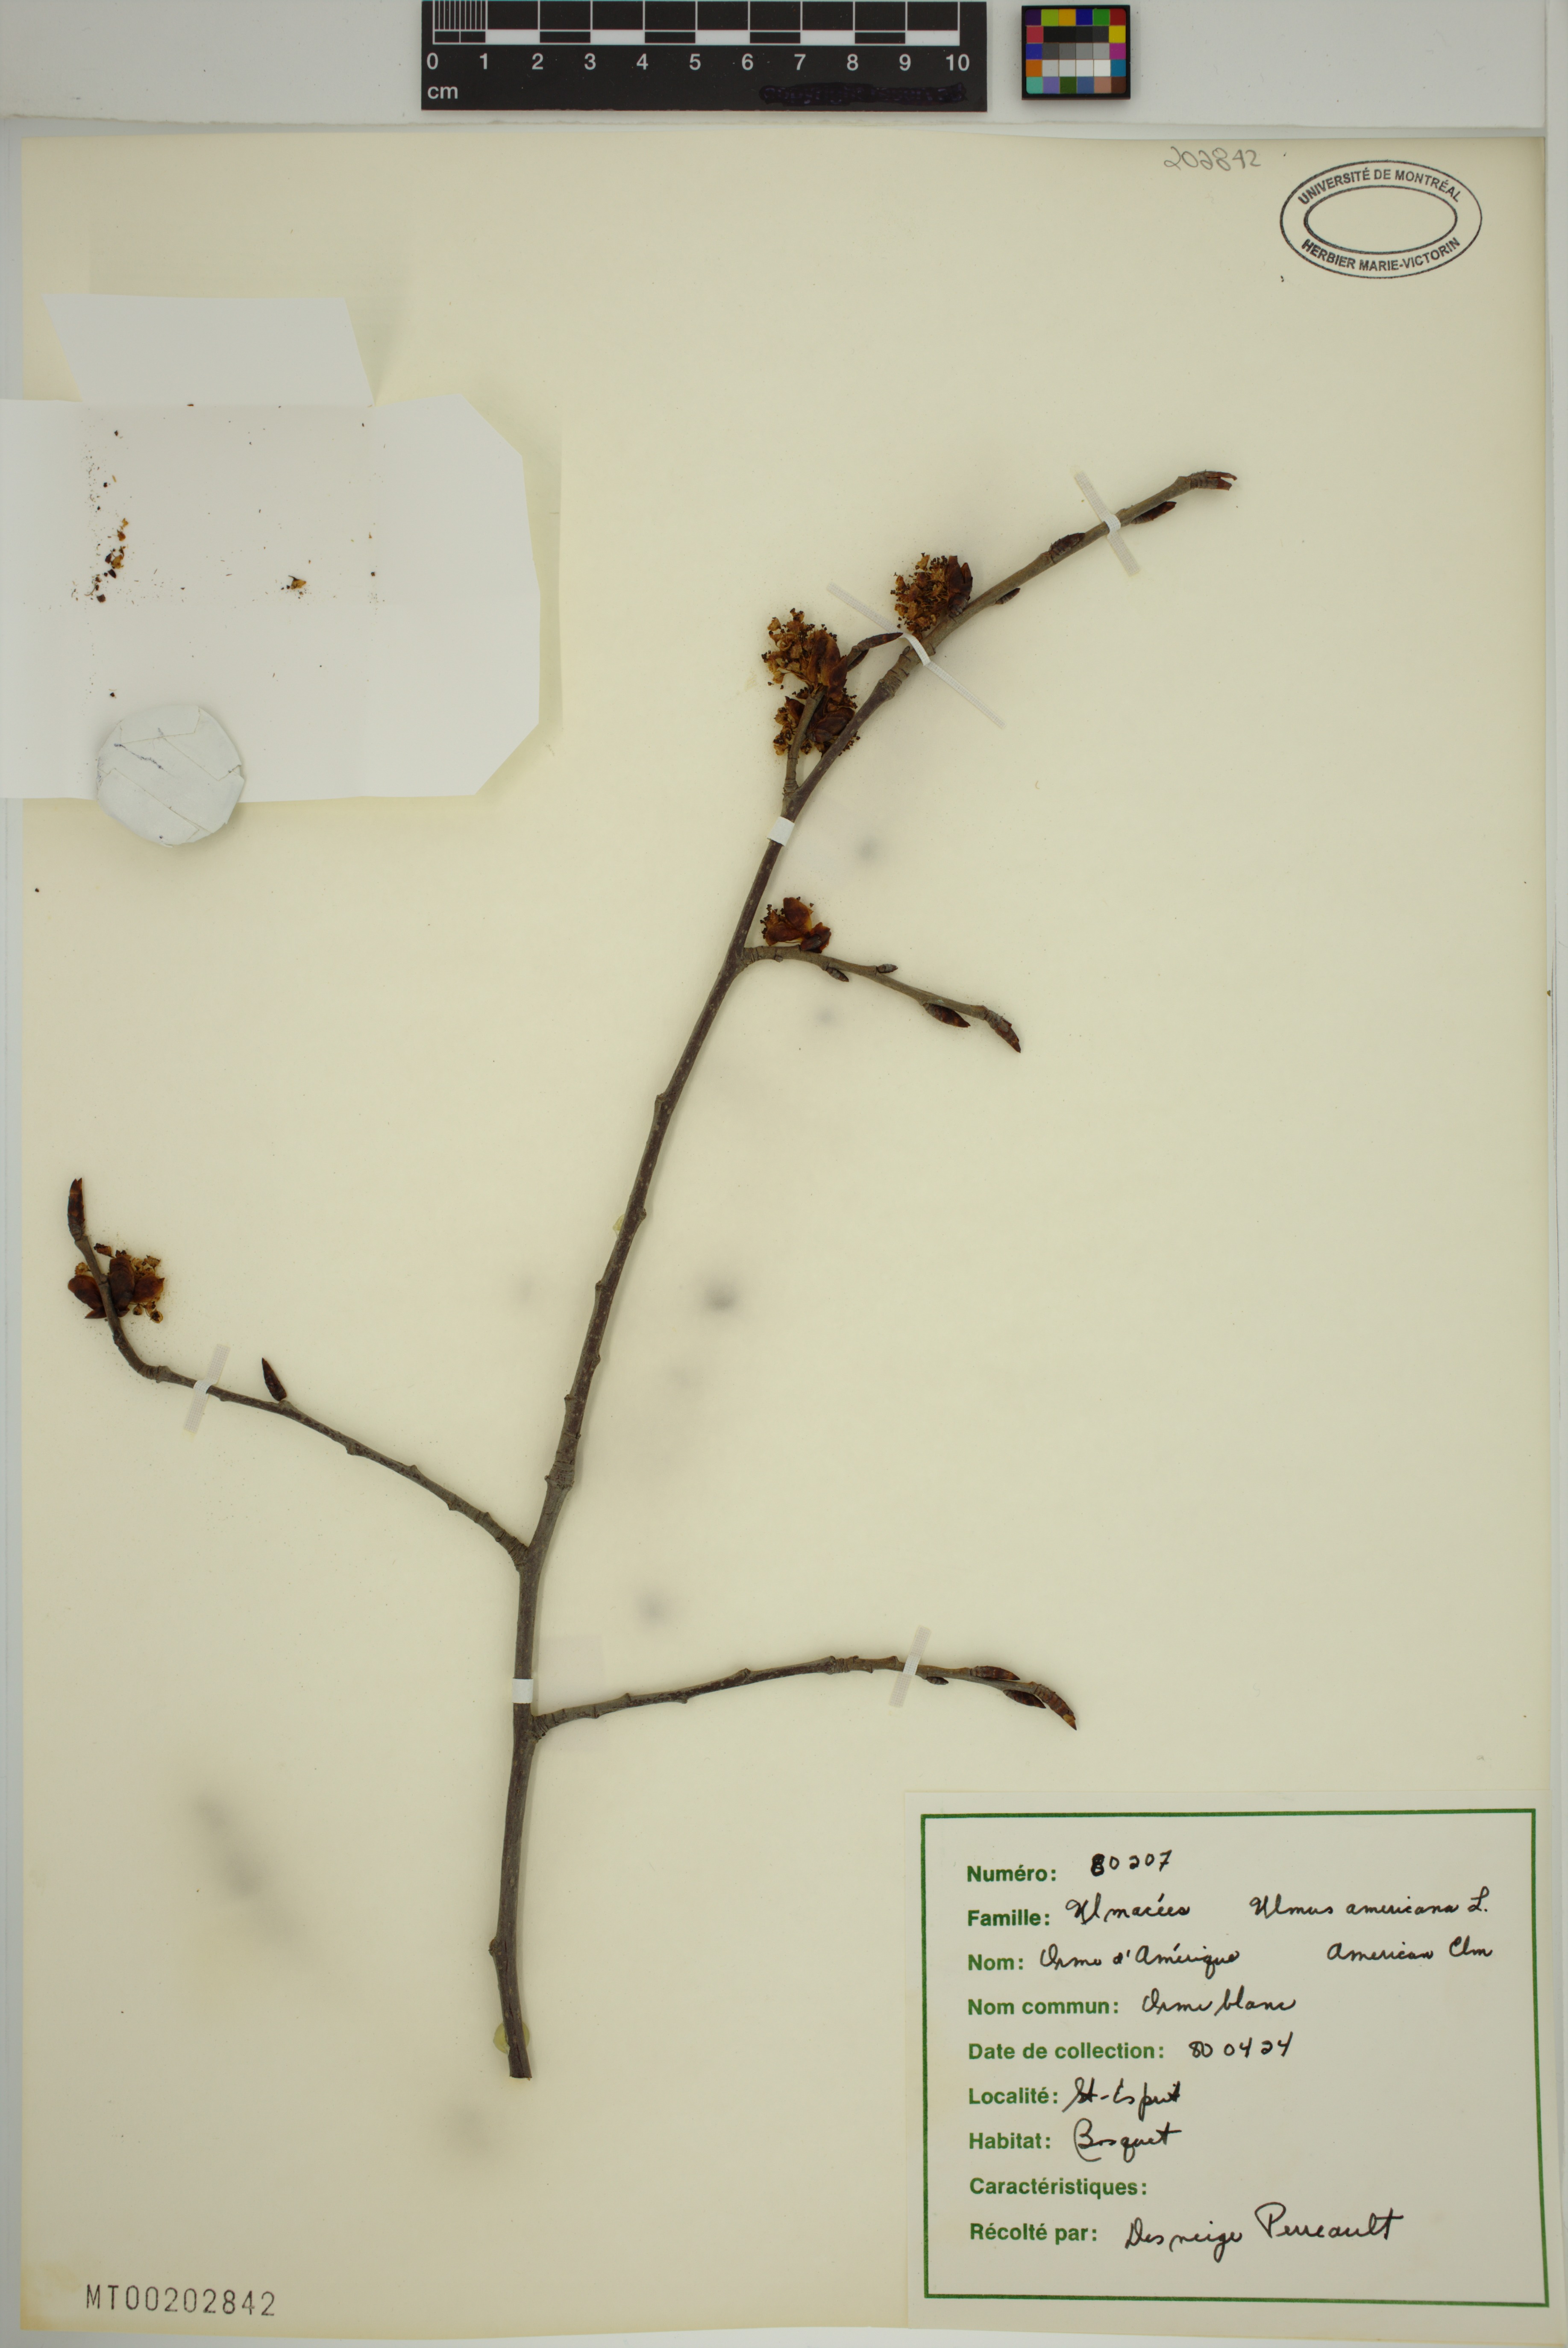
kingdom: Plantae
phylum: Tracheophyta
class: Magnoliopsida
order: Rosales
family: Ulmaceae
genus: Ulmus
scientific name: Ulmus americana
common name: American elm
